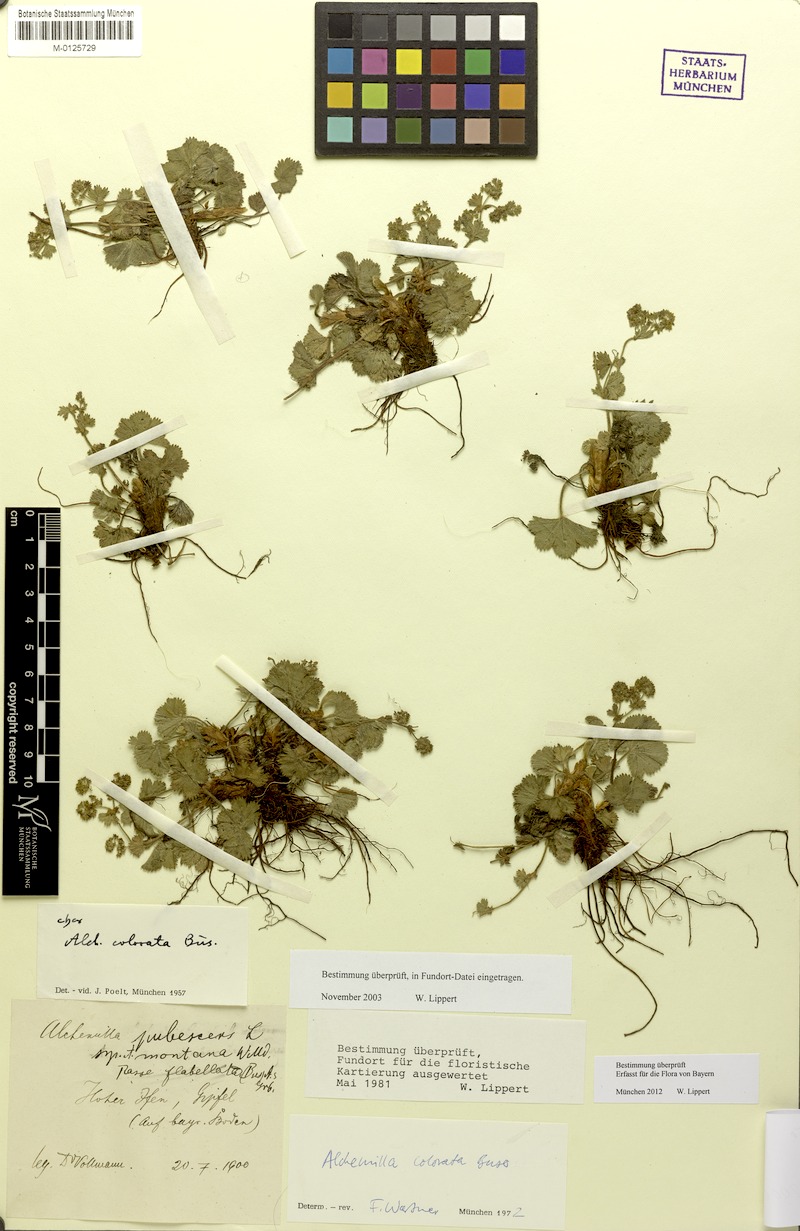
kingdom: Plantae
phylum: Tracheophyta
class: Magnoliopsida
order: Rosales
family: Rosaceae
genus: Alchemilla
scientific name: Alchemilla colorata
